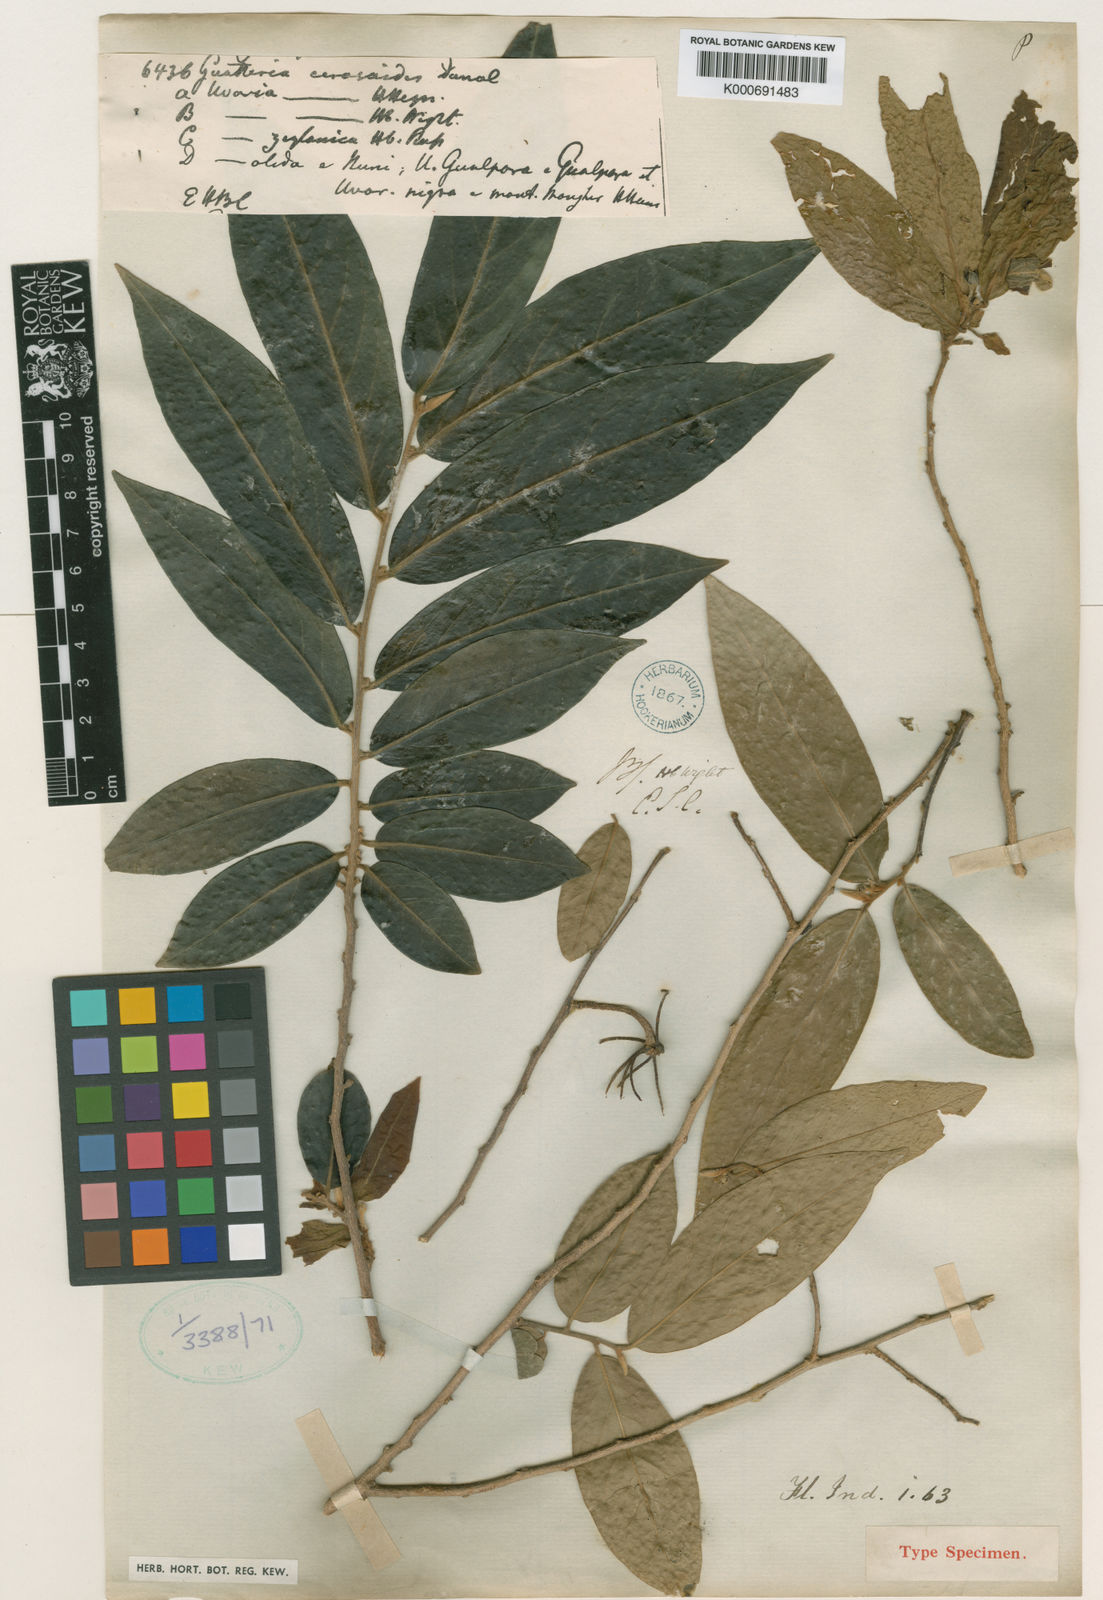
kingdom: Plantae
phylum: Tracheophyta
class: Magnoliopsida
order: Magnoliales
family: Annonaceae
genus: Polyalthia
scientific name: Polyalthia
